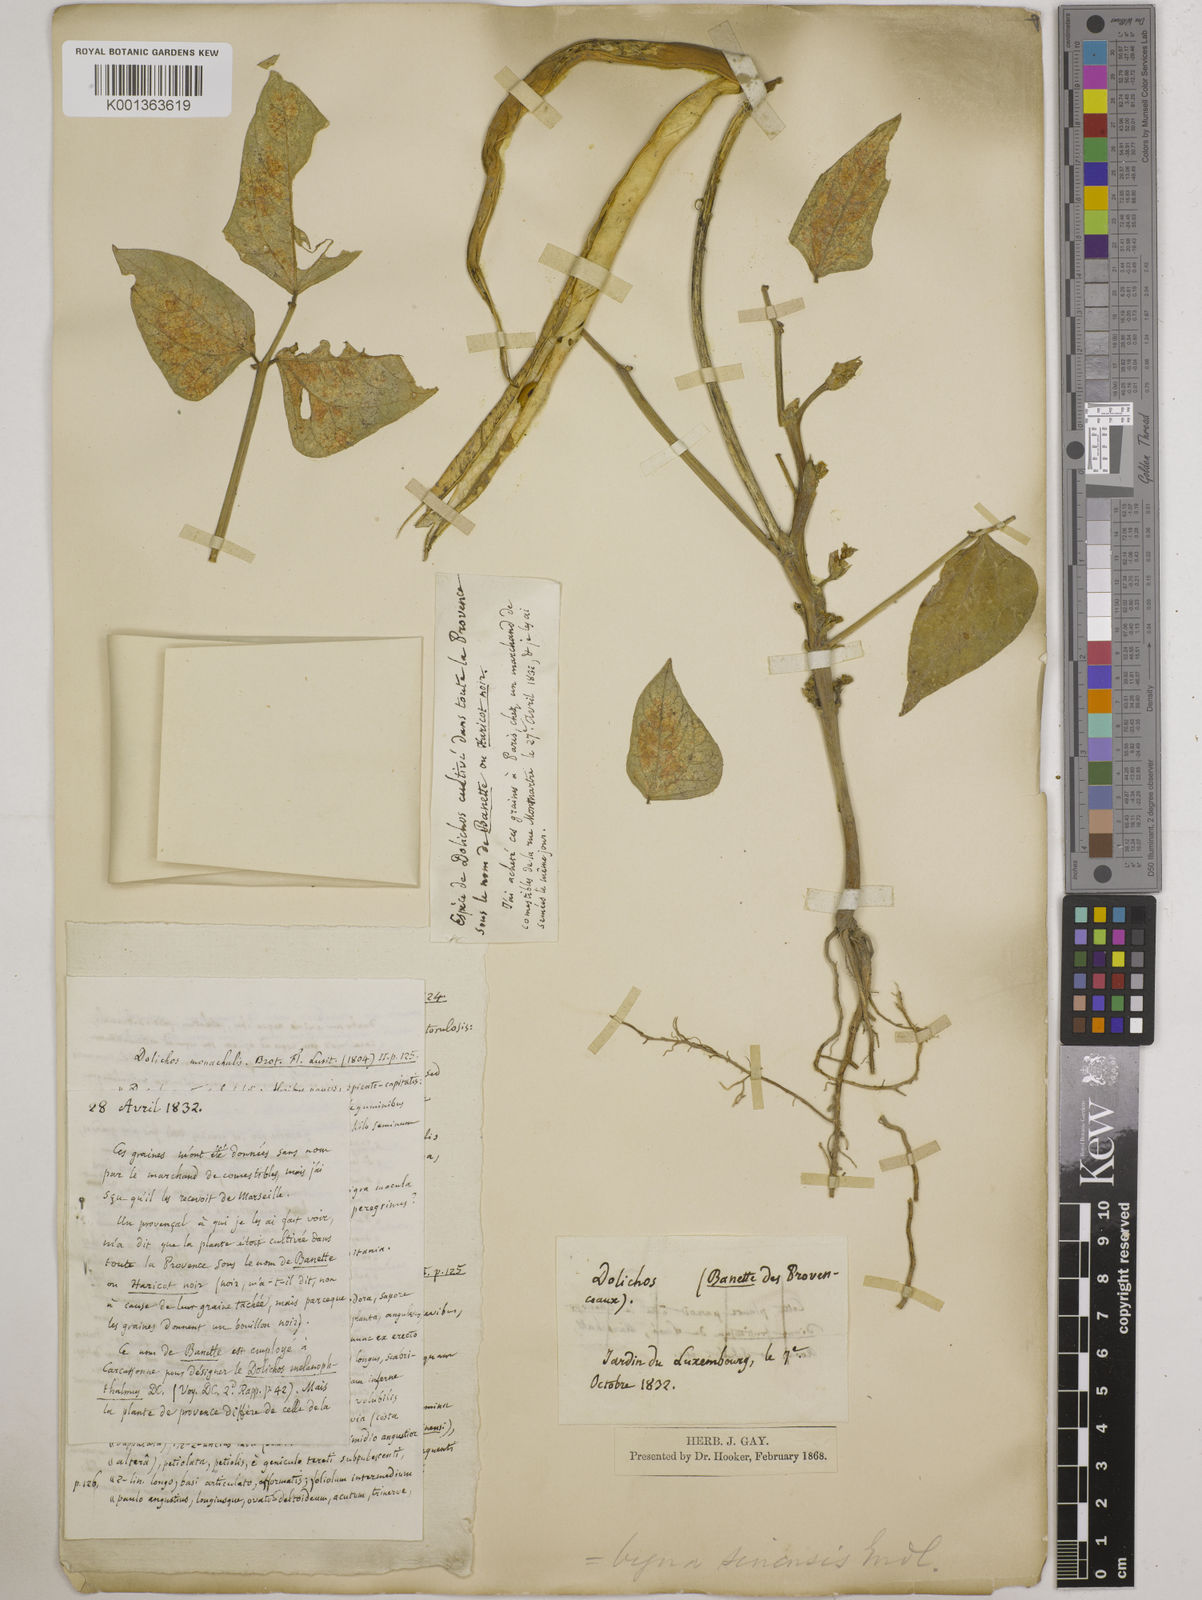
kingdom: Plantae
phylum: Tracheophyta
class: Magnoliopsida
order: Fabales
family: Fabaceae
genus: Vigna
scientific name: Vigna unguiculata
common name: Cowpea
